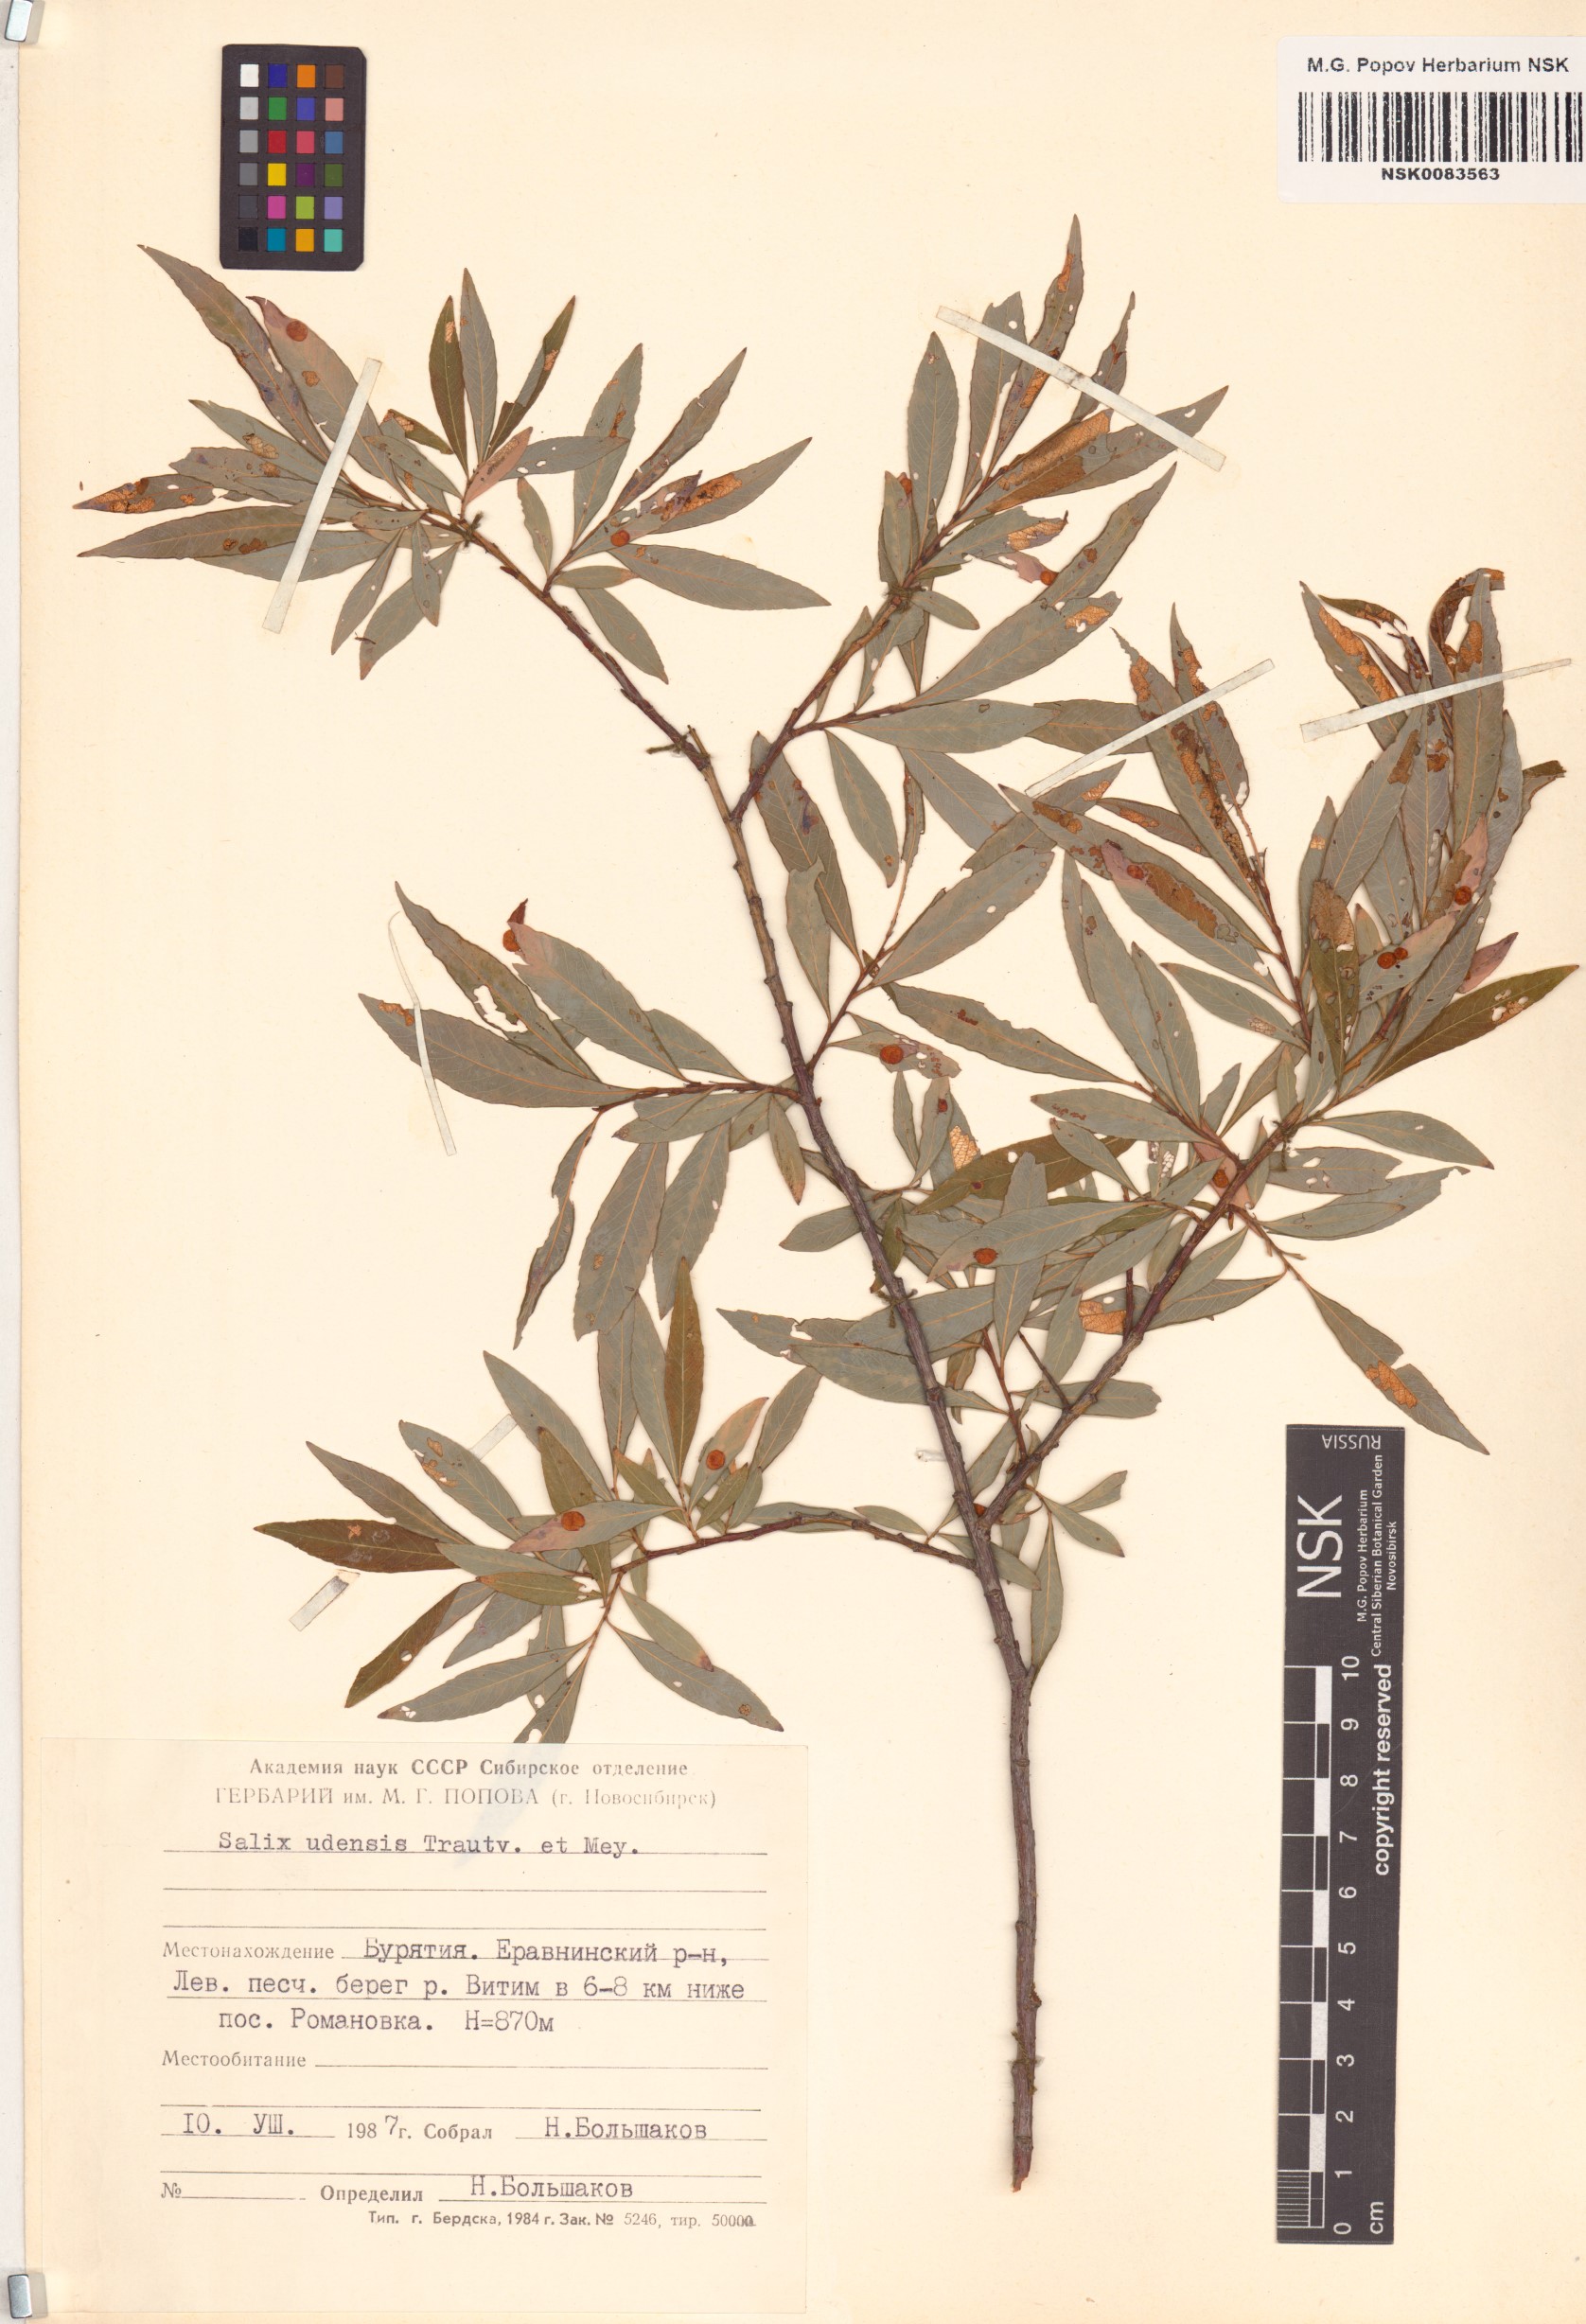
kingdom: Plantae
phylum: Tracheophyta
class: Magnoliopsida
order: Malpighiales
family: Salicaceae
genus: Salix
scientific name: Salix udensis
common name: Sachalin willow
